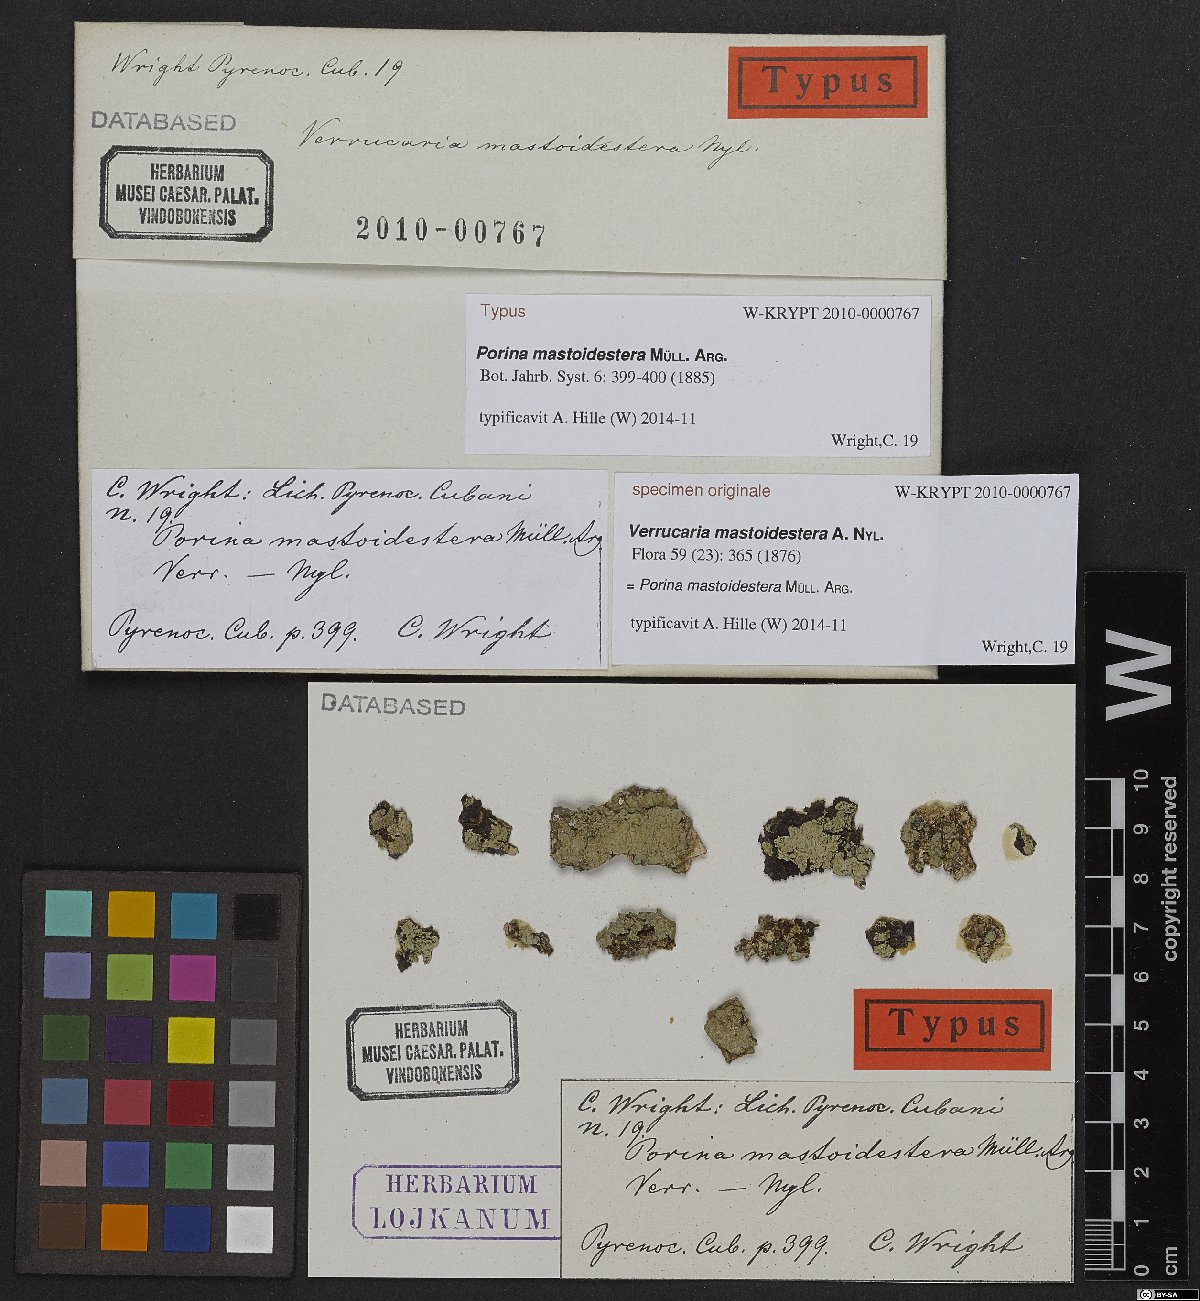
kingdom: Fungi
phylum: Ascomycota
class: Lecanoromycetes
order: Ostropales
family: Porinaceae
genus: Porina
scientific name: Porina
